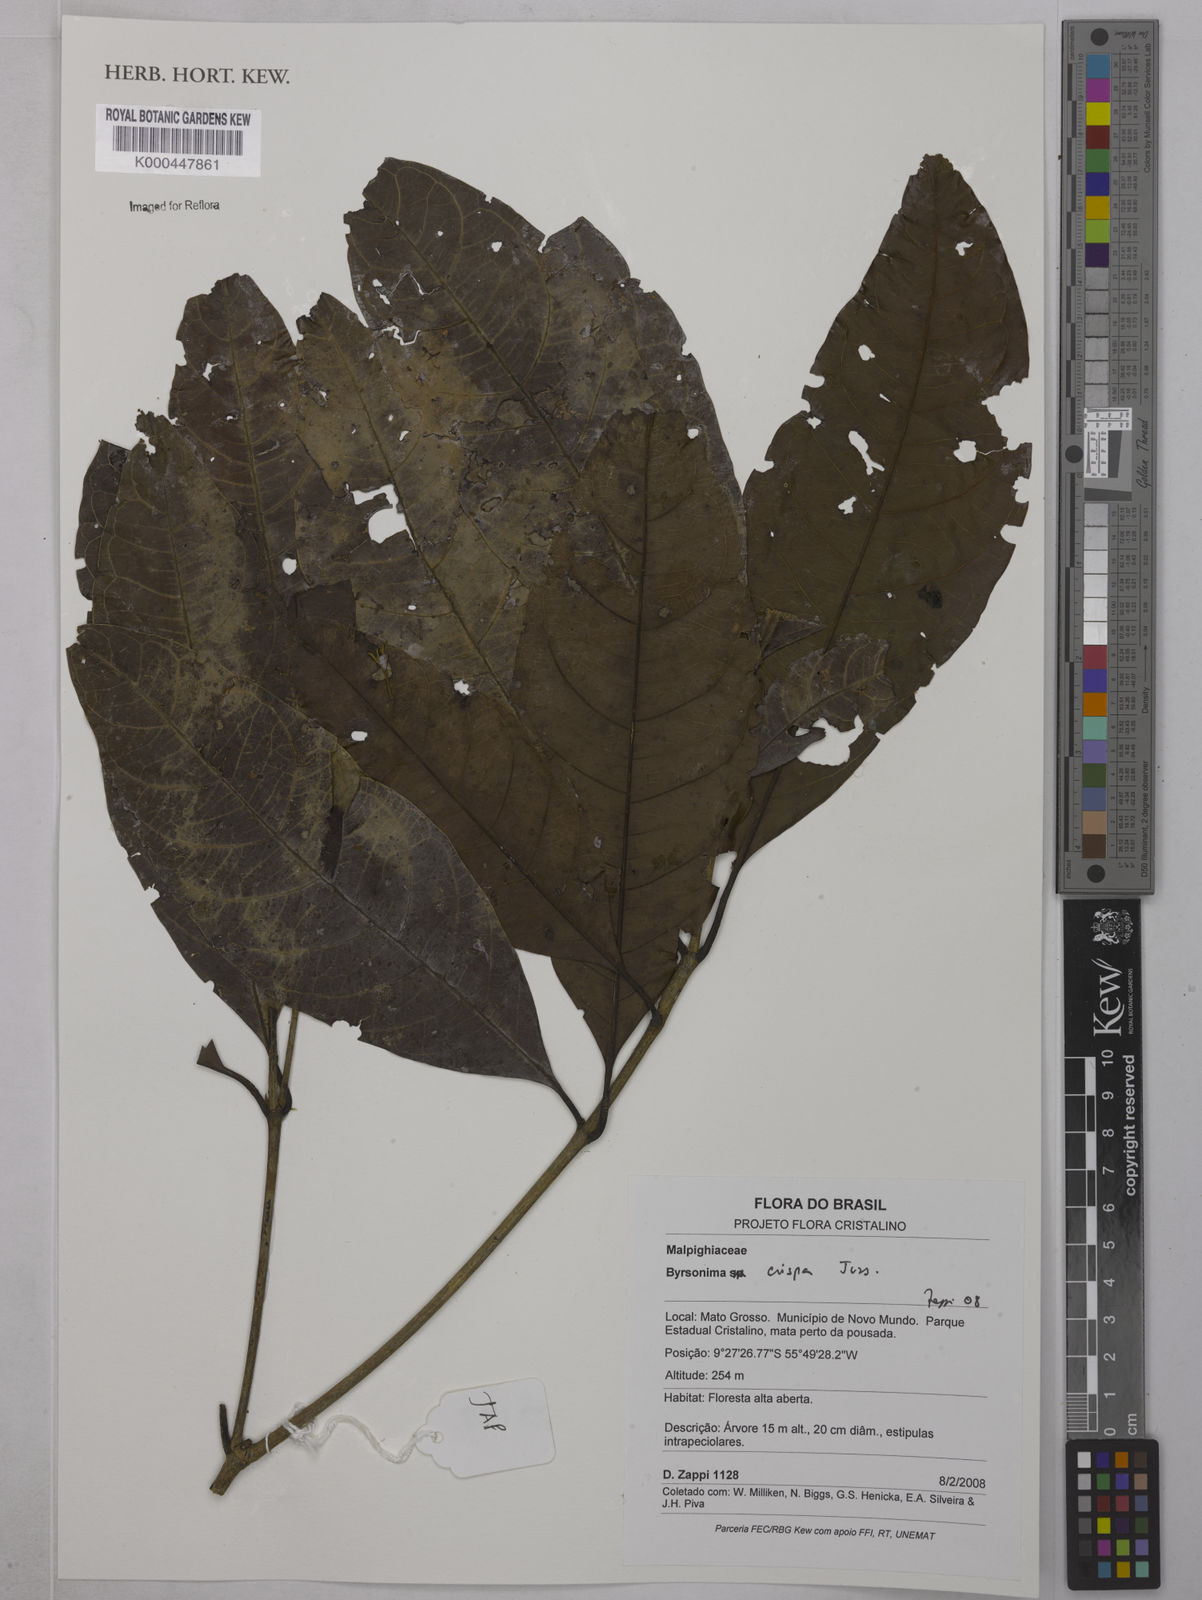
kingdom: Plantae
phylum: Tracheophyta
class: Magnoliopsida
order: Malpighiales
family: Malpighiaceae
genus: Byrsonima
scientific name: Byrsonima crispa
